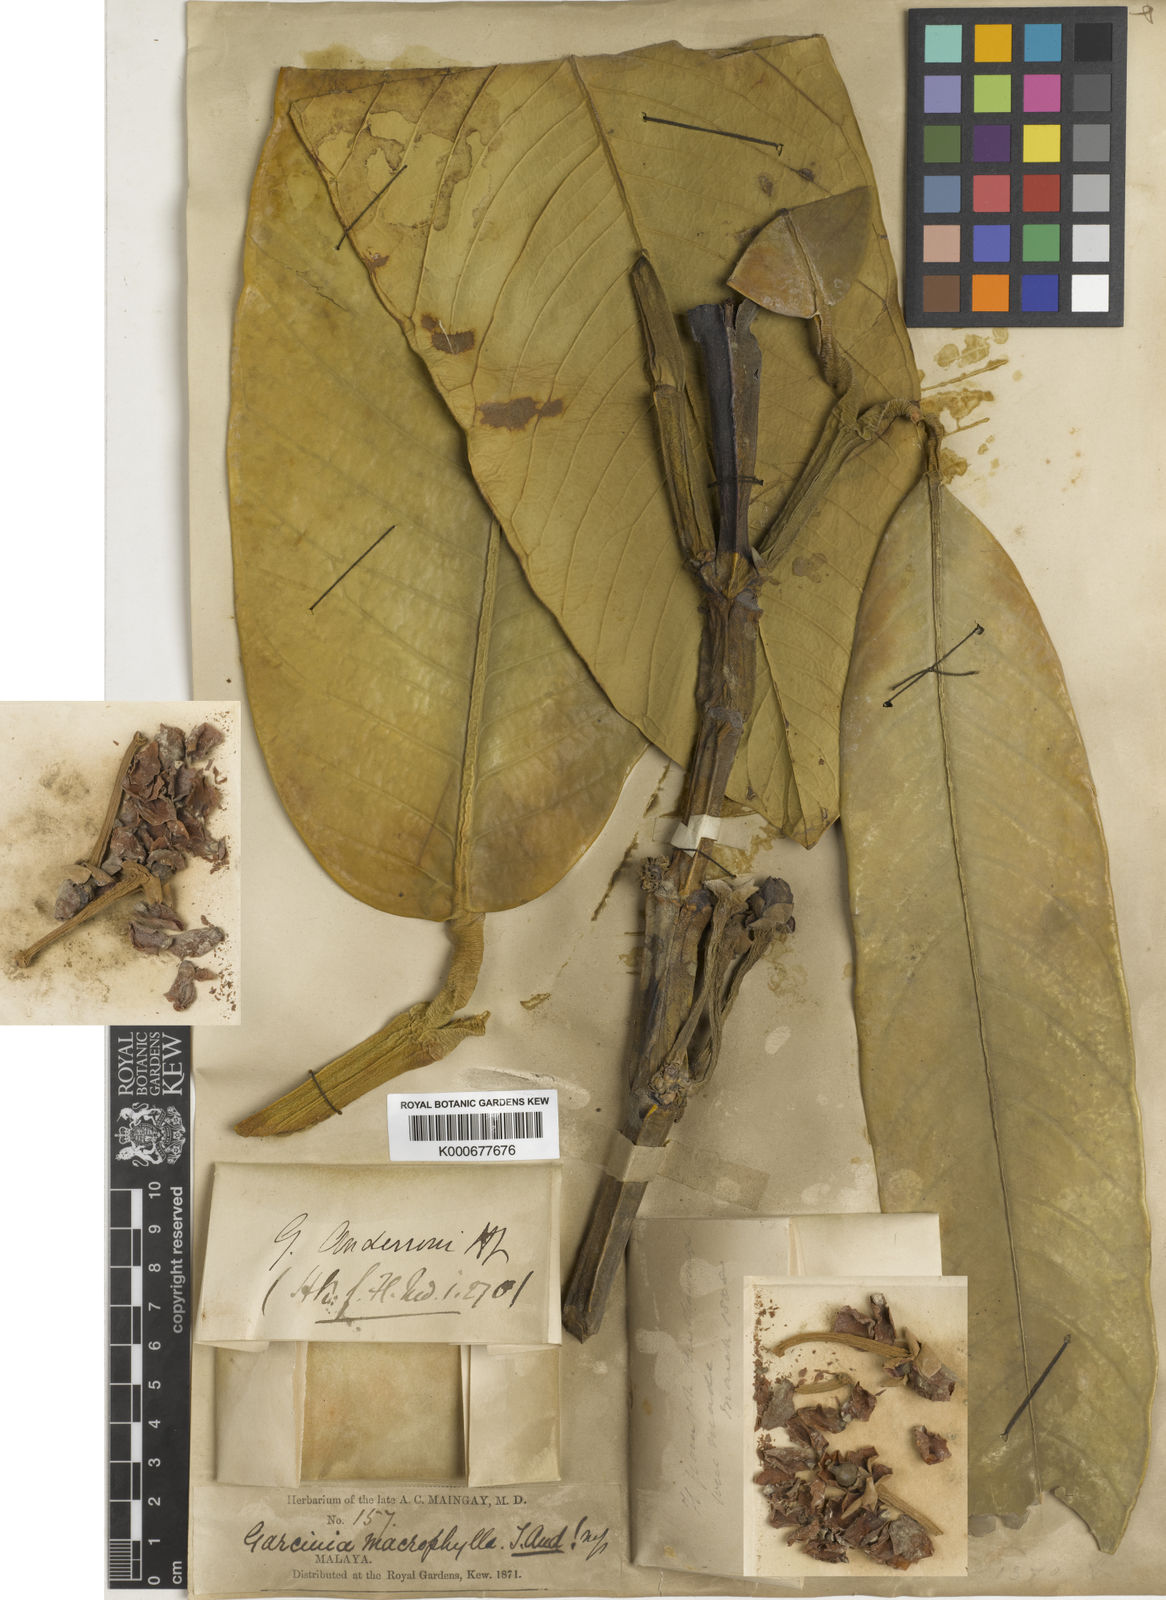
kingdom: Plantae
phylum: Tracheophyta
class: Magnoliopsida
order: Malpighiales
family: Clusiaceae
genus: Garcinia
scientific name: Garcinia nervosa
